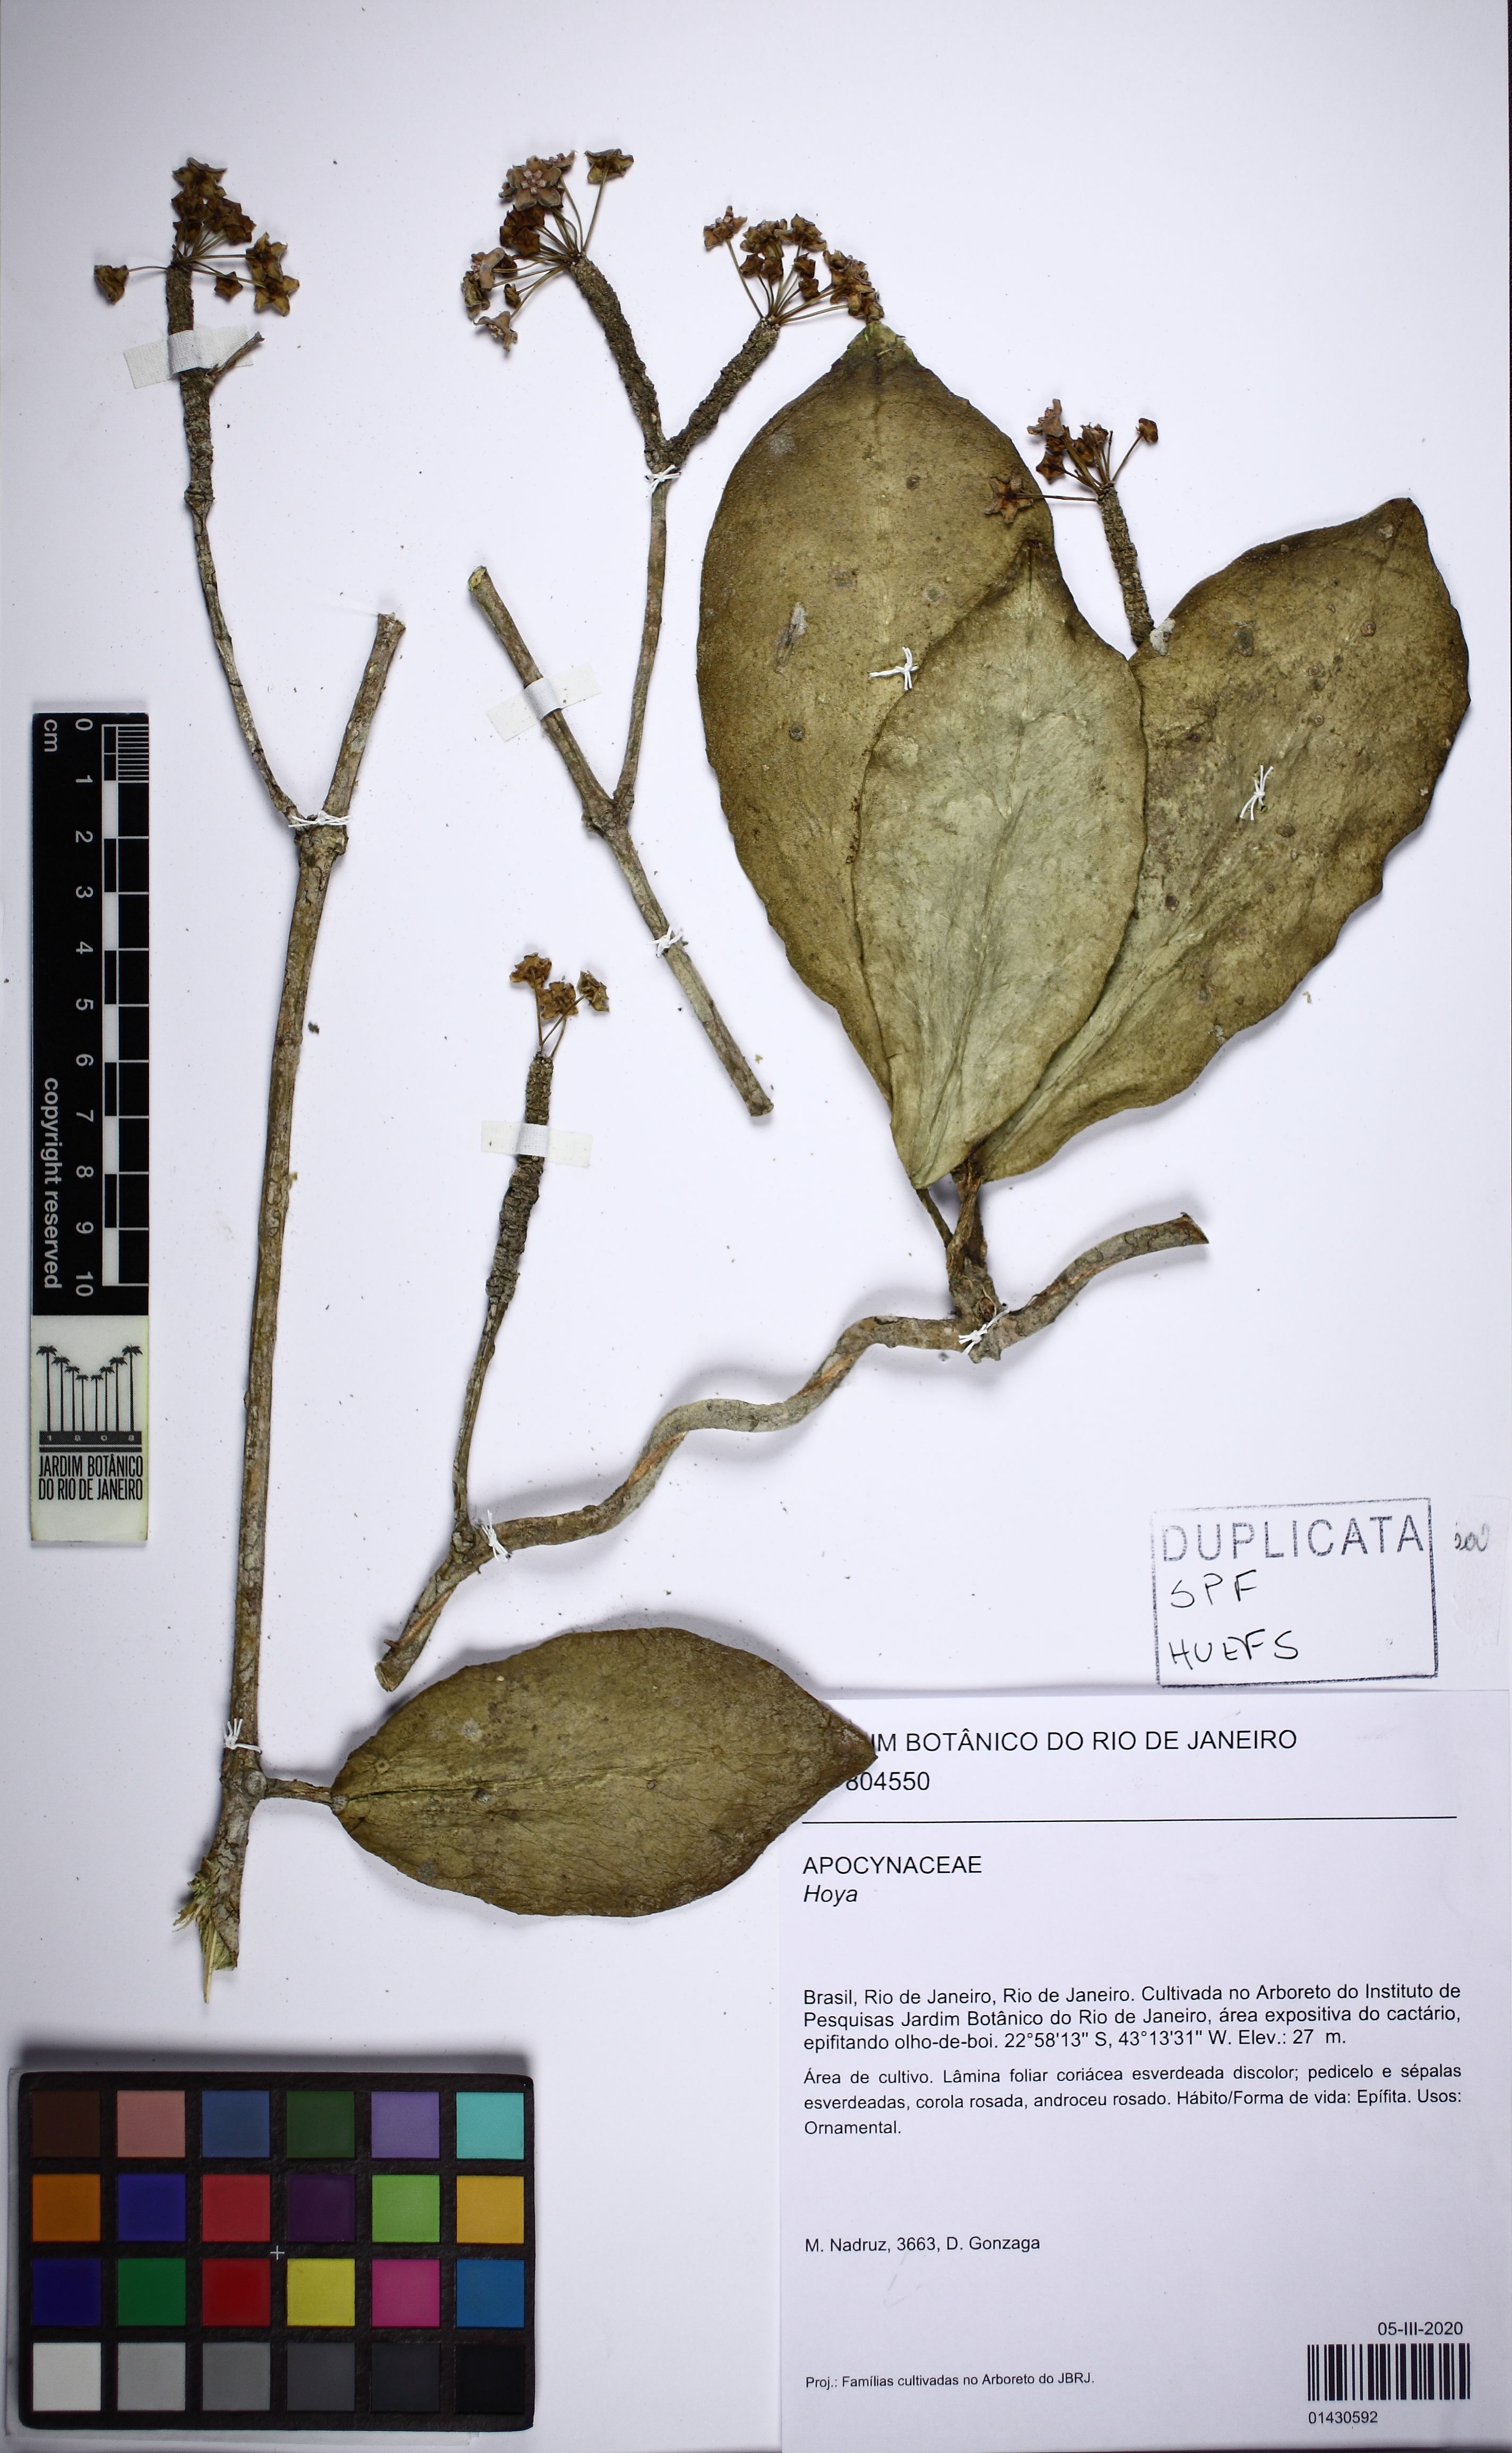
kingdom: Plantae
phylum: Tracheophyta
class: Magnoliopsida
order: Gentianales
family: Apocynaceae
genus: Hoya
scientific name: Hoya
